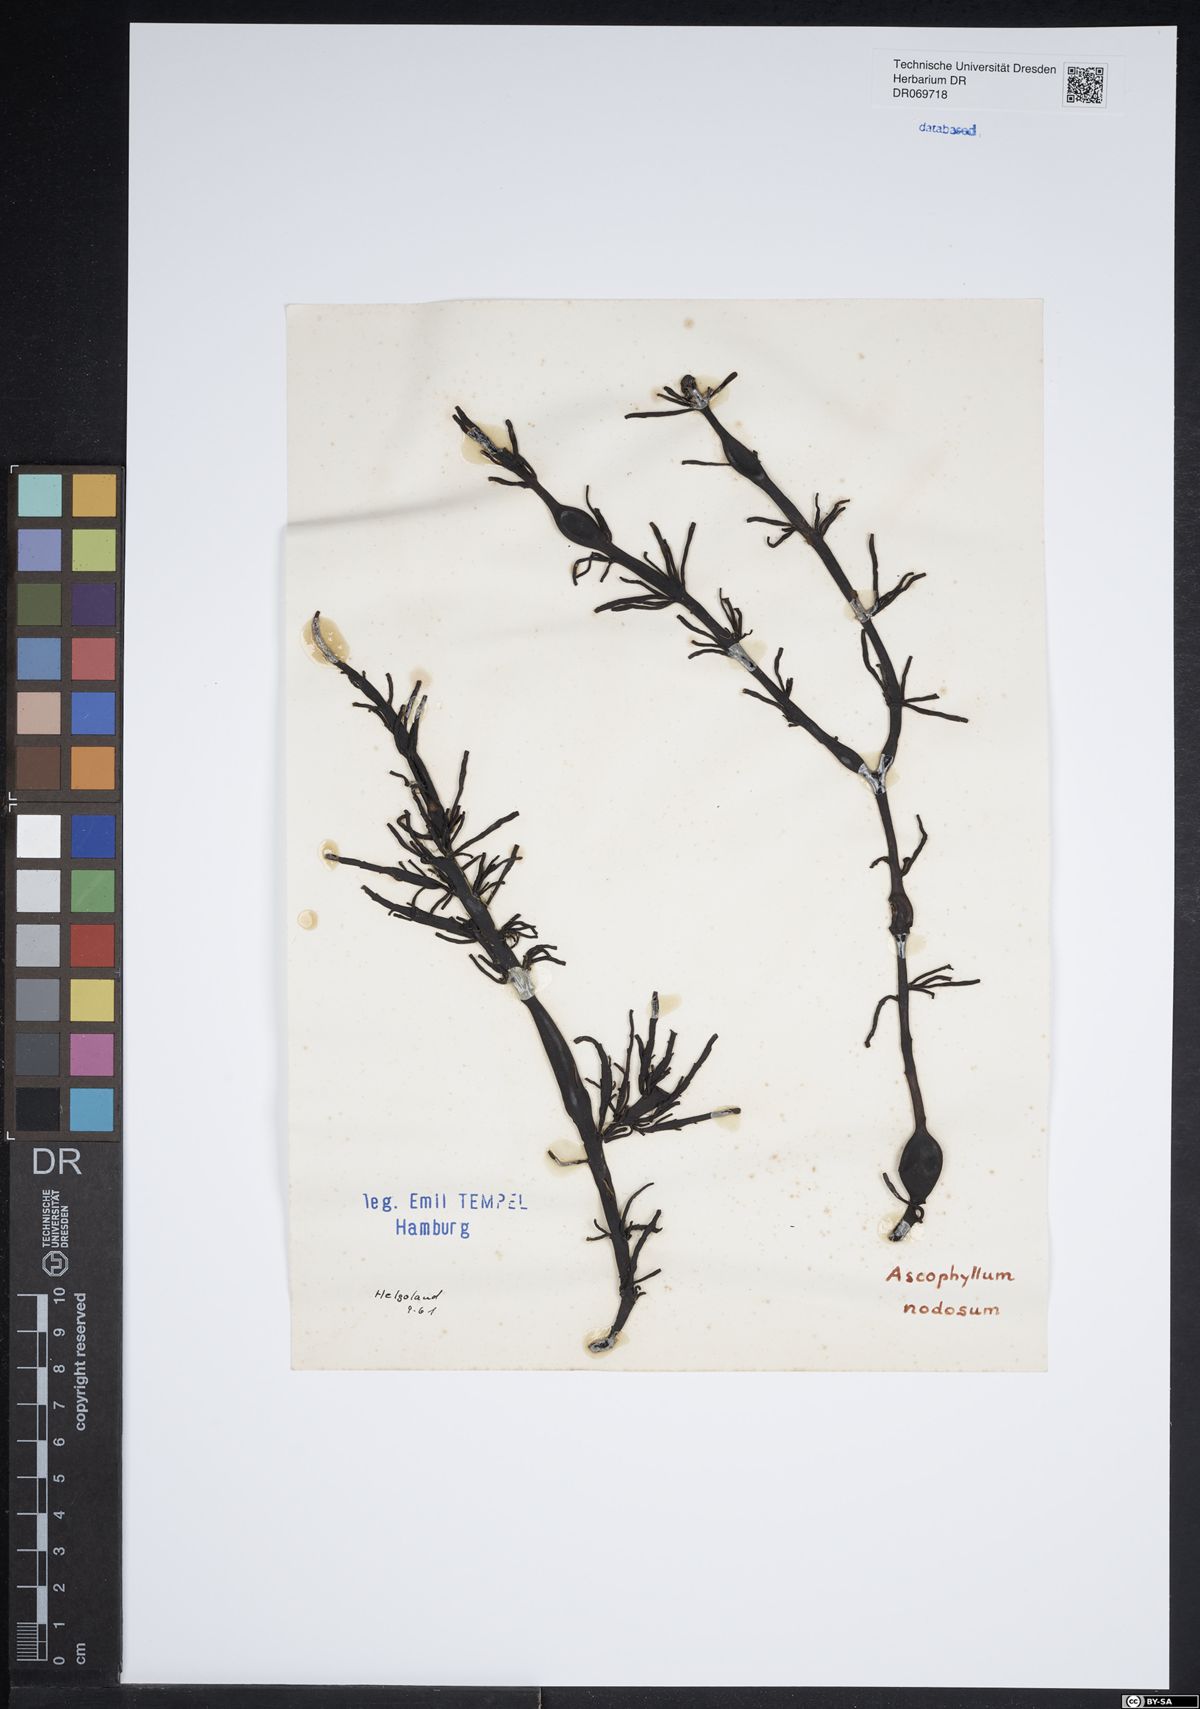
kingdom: Chromista
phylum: Ochrophyta
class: Phaeophyceae
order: Fucales
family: Fucaceae
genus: Ascophyllum
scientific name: Ascophyllum nodosum
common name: Knotted wrack
